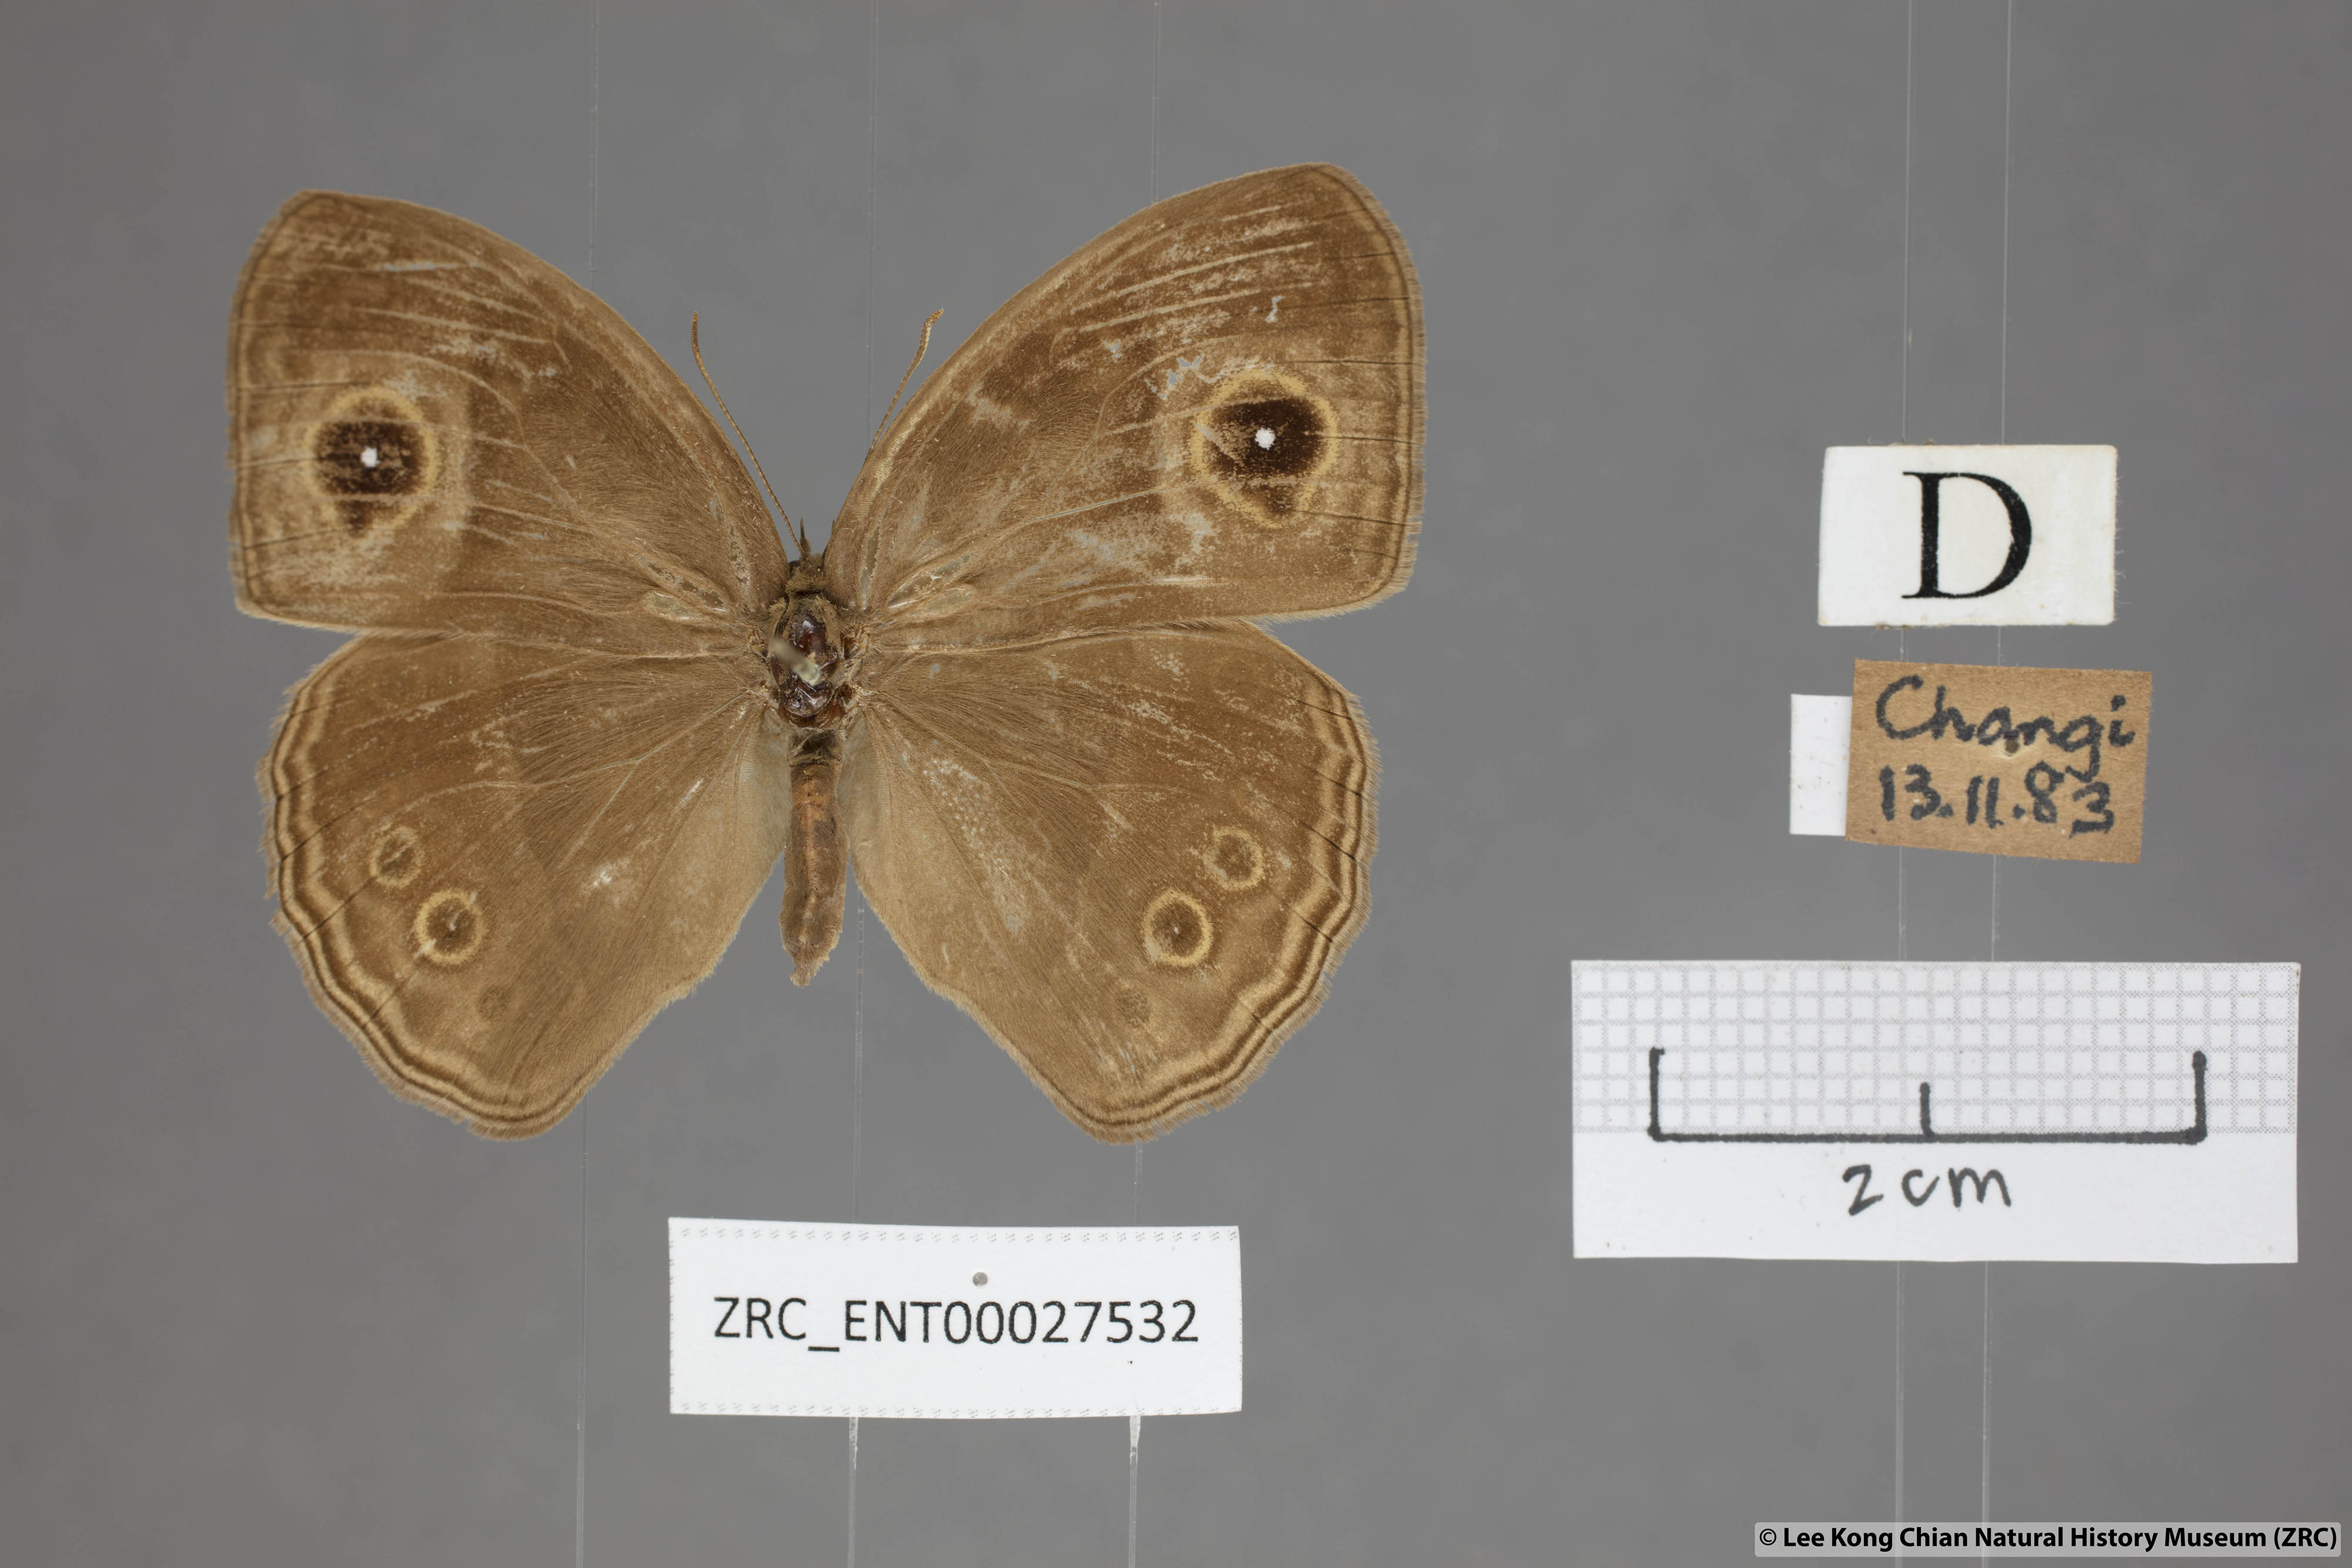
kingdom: Animalia
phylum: Arthropoda
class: Insecta
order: Lepidoptera
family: Nymphalidae
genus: Mycalesis
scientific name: Mycalesis perseus
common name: Dingy bushbrown
